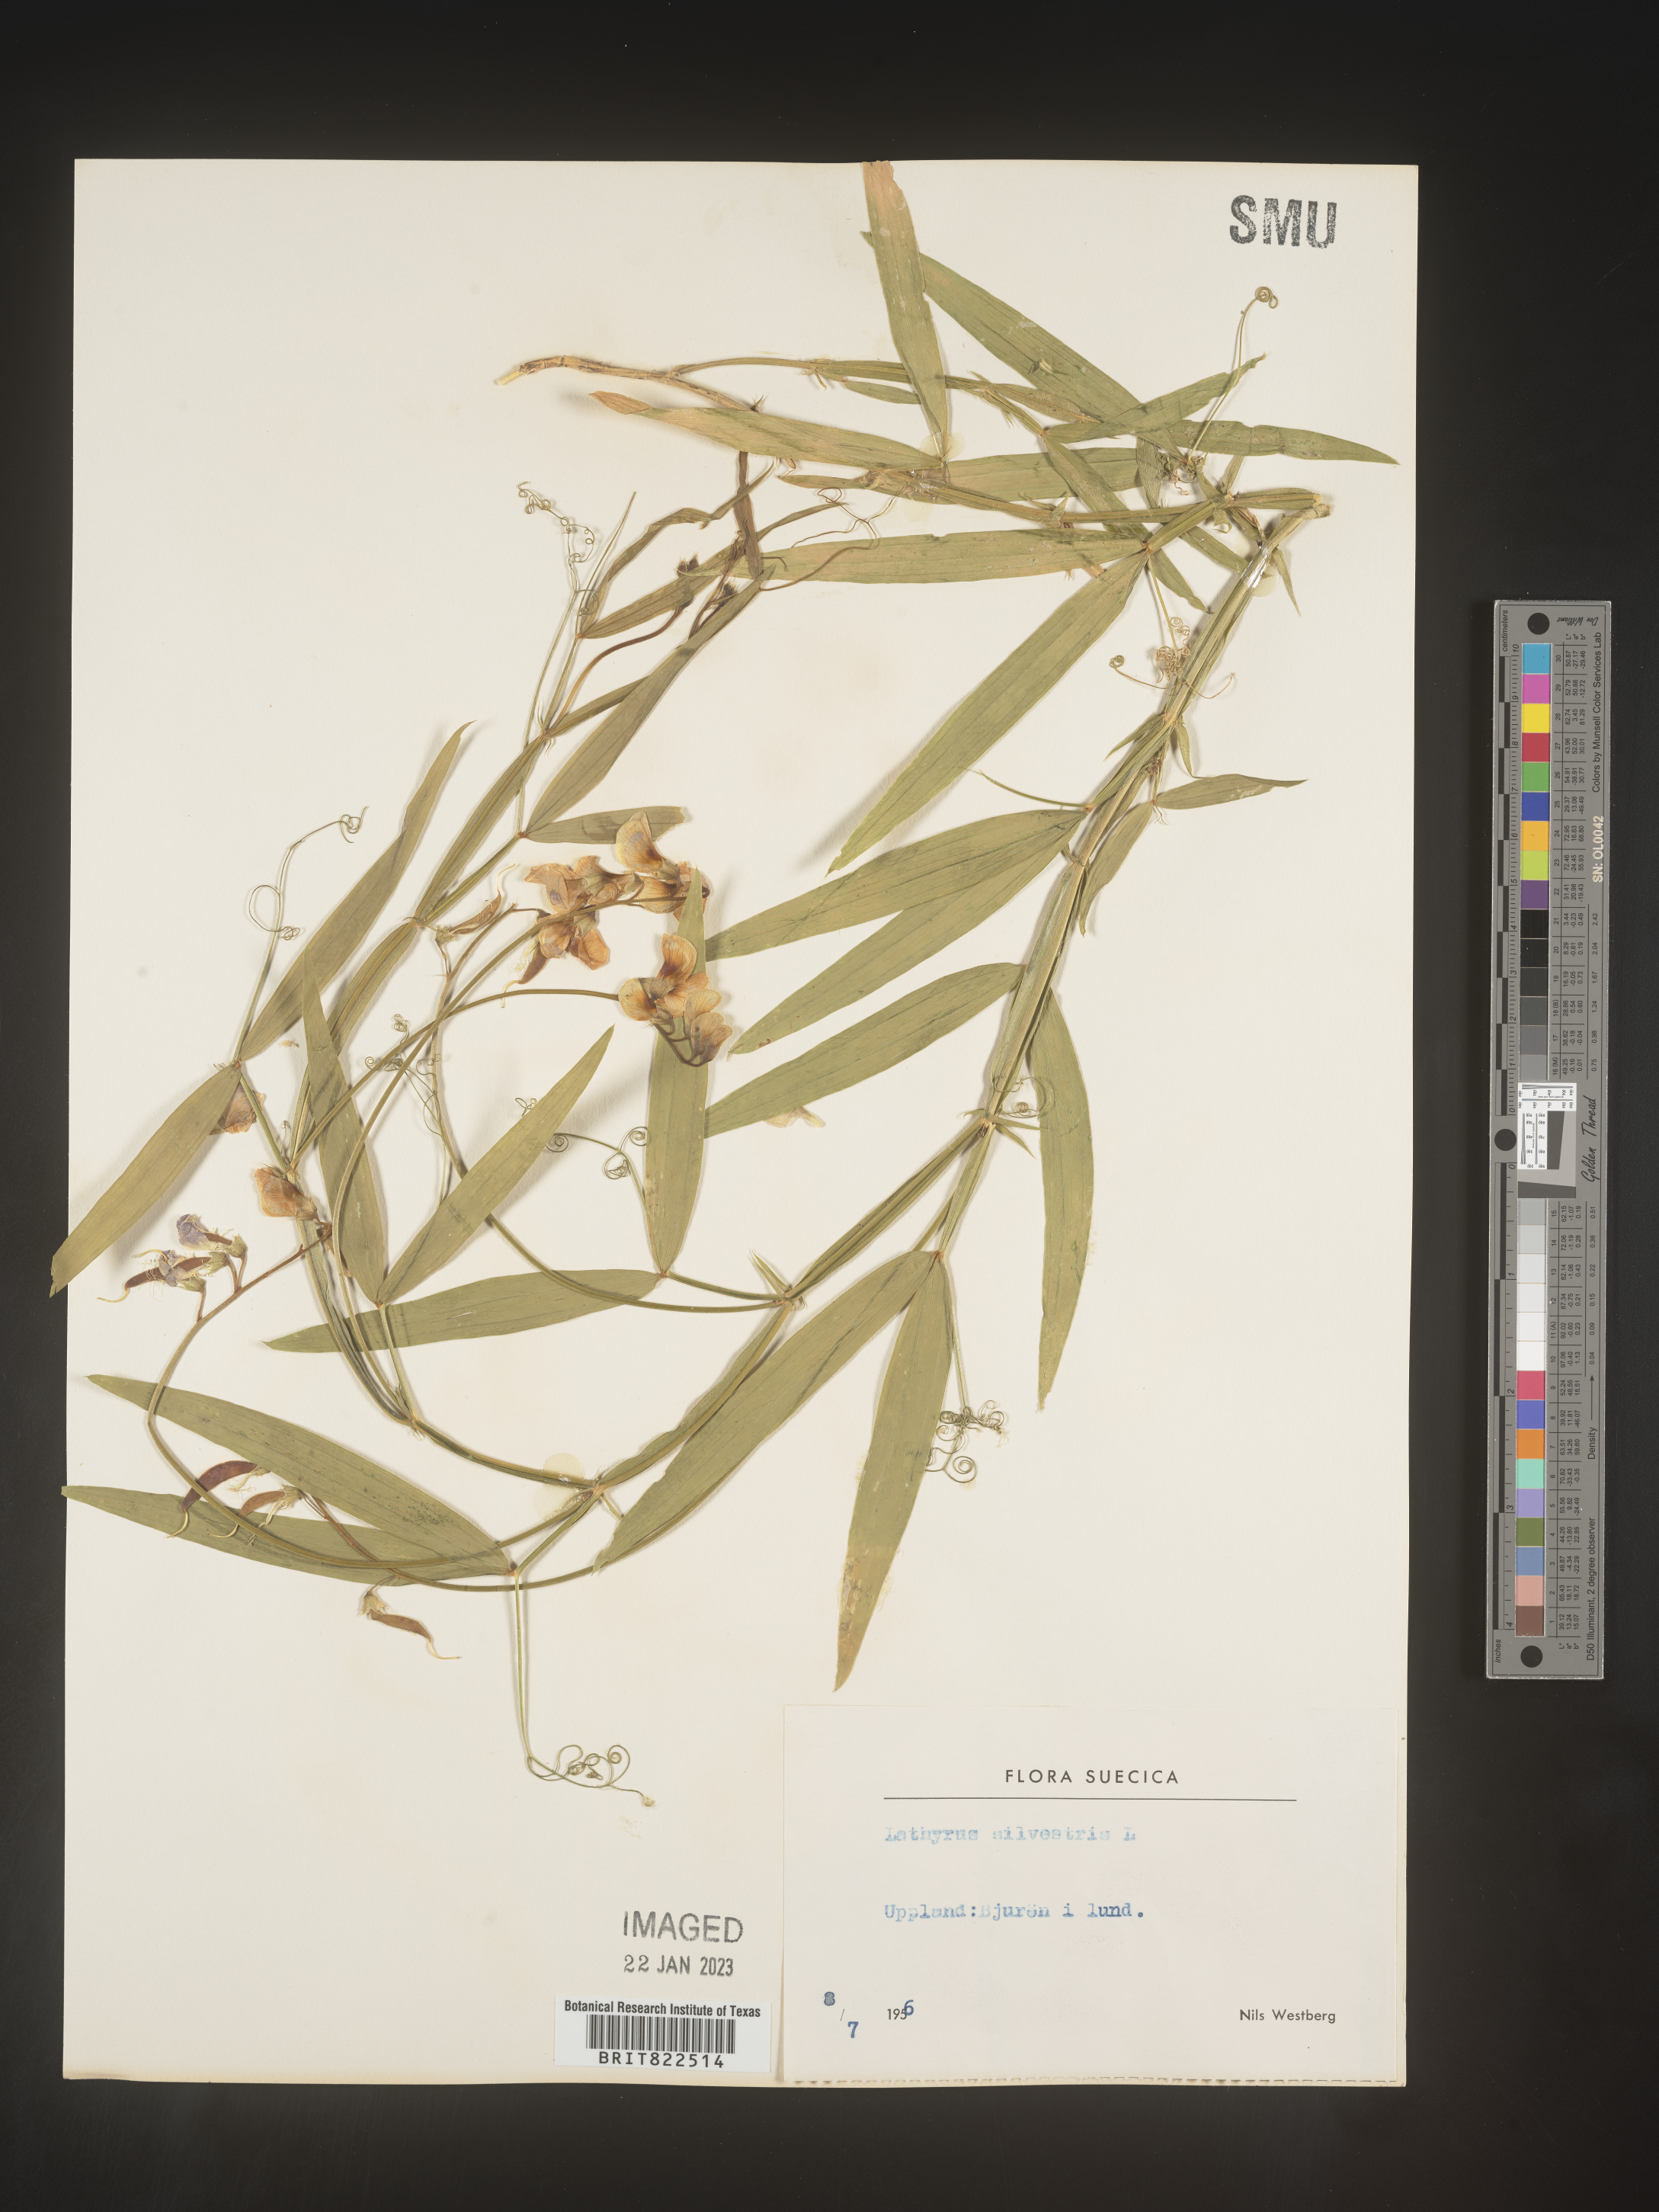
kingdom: Plantae
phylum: Tracheophyta
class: Magnoliopsida
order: Fabales
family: Fabaceae
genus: Lathyrus
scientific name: Lathyrus
